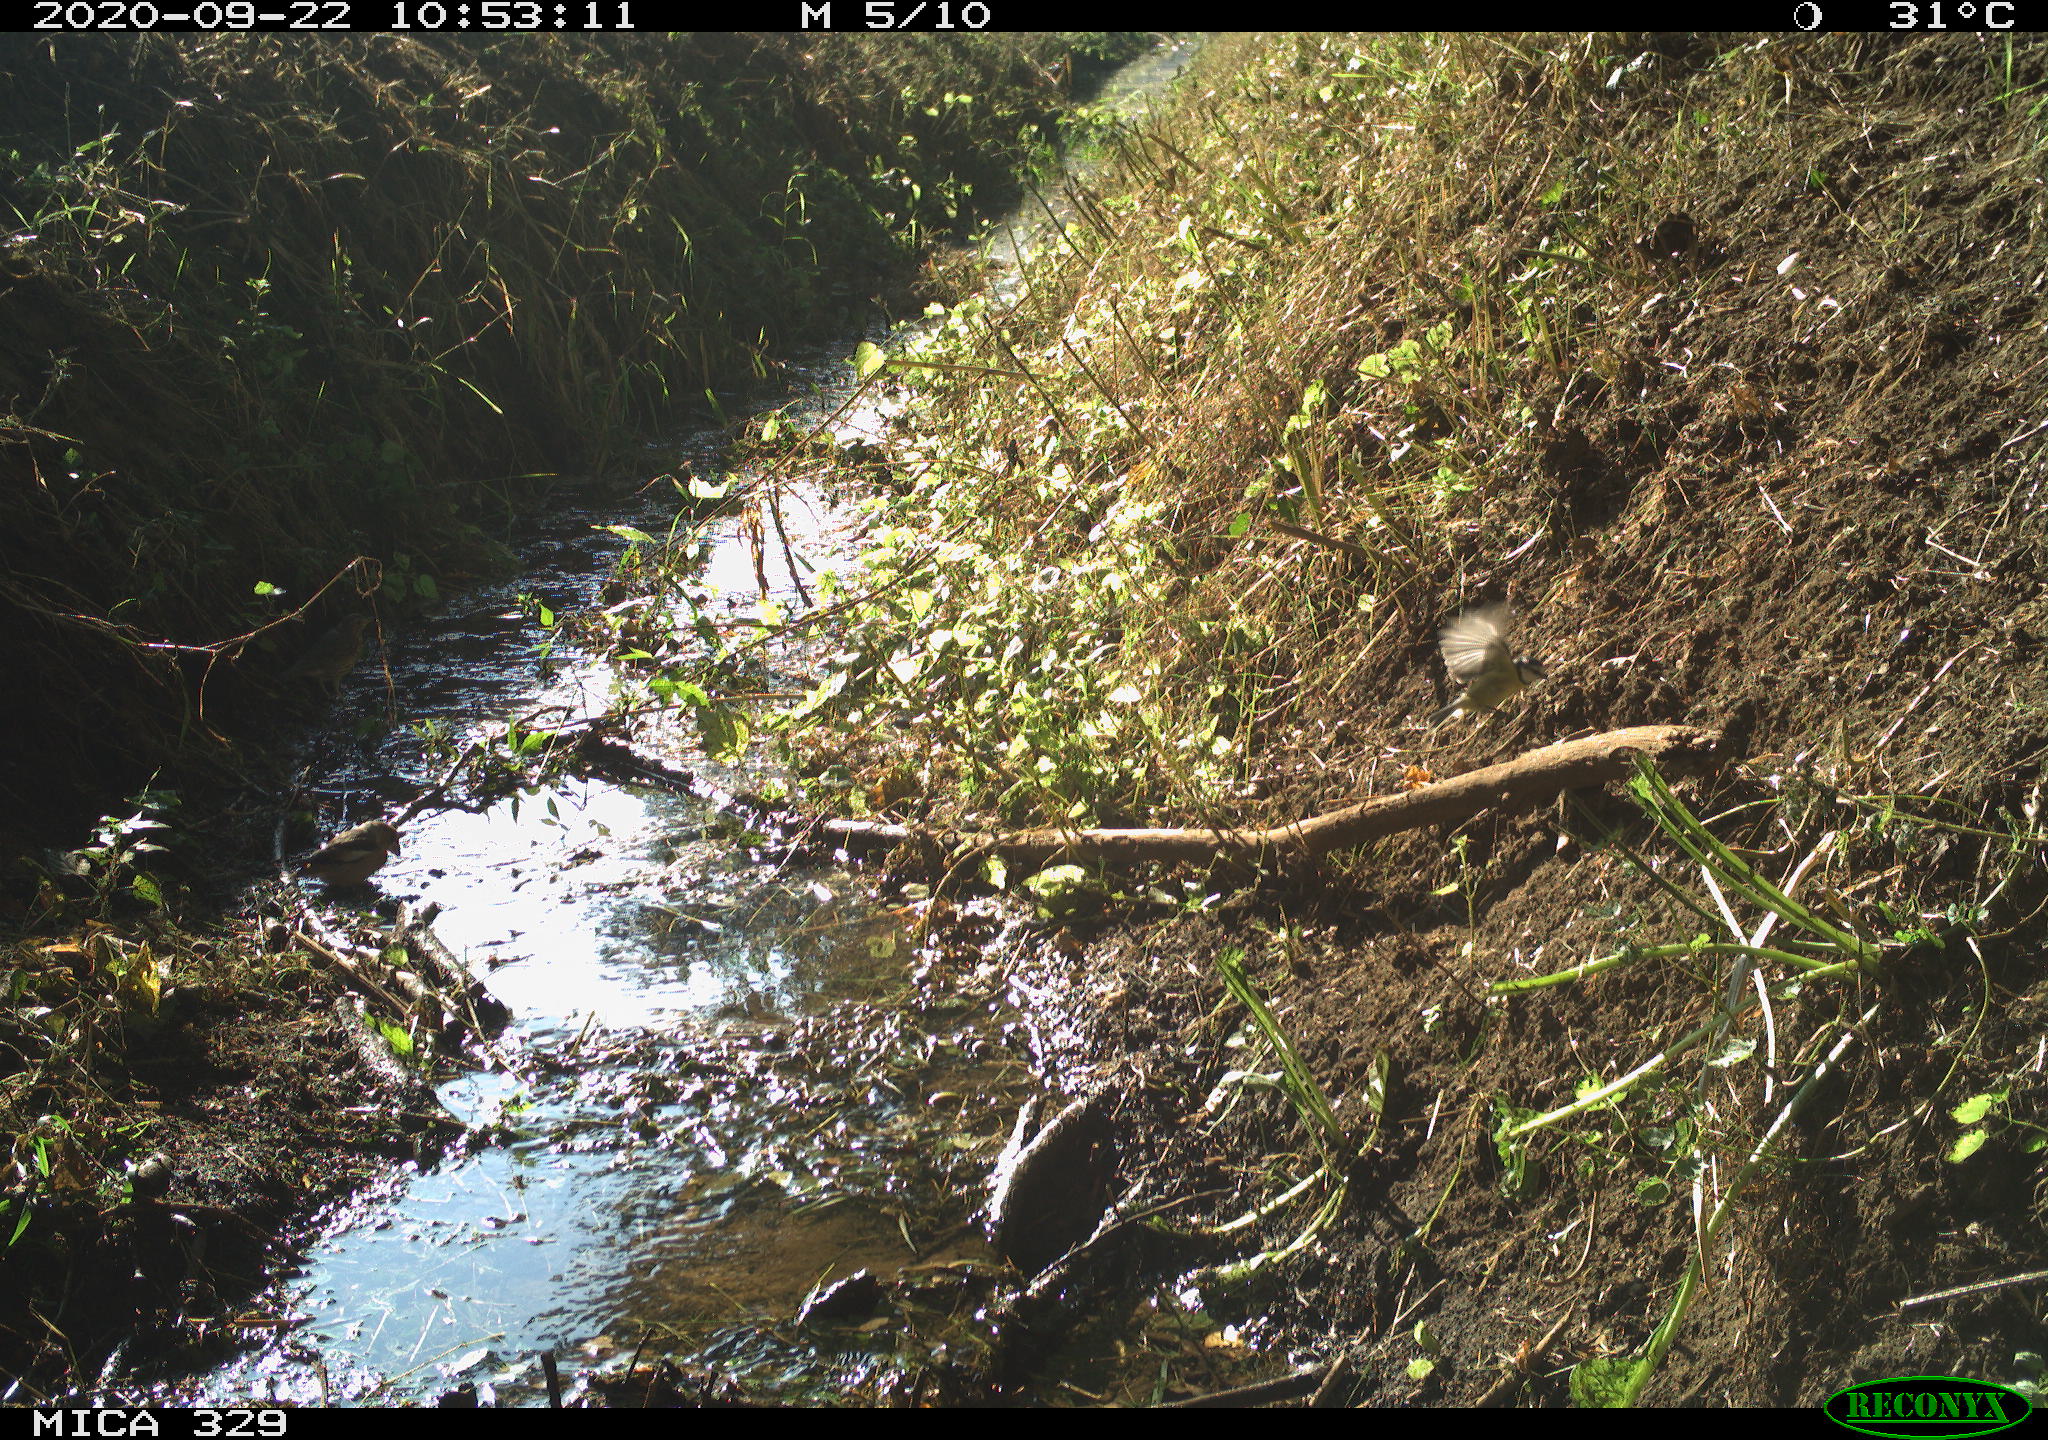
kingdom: Animalia
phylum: Chordata
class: Aves
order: Passeriformes
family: Fringillidae
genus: Fringilla
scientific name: Fringilla coelebs
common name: Common chaffinch
